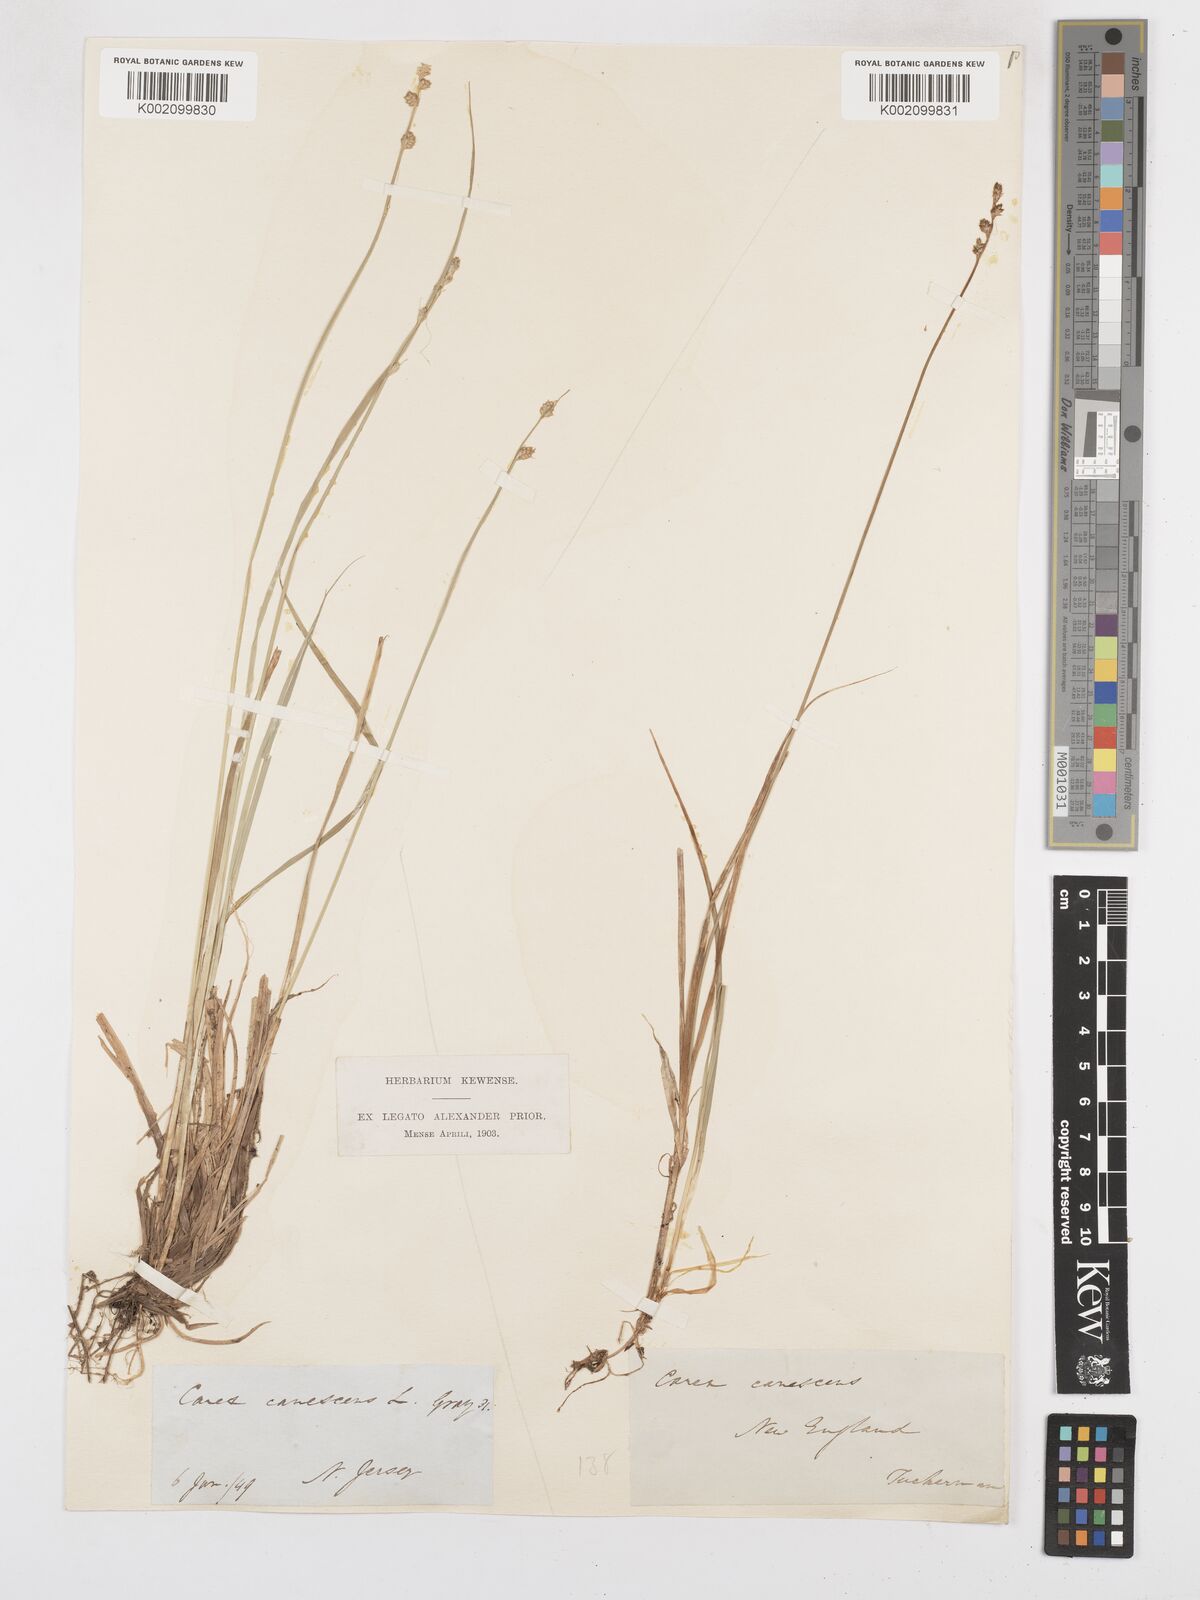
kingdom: Plantae
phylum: Tracheophyta
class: Liliopsida
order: Poales
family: Cyperaceae
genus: Carex
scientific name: Carex curta
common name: White sedge
